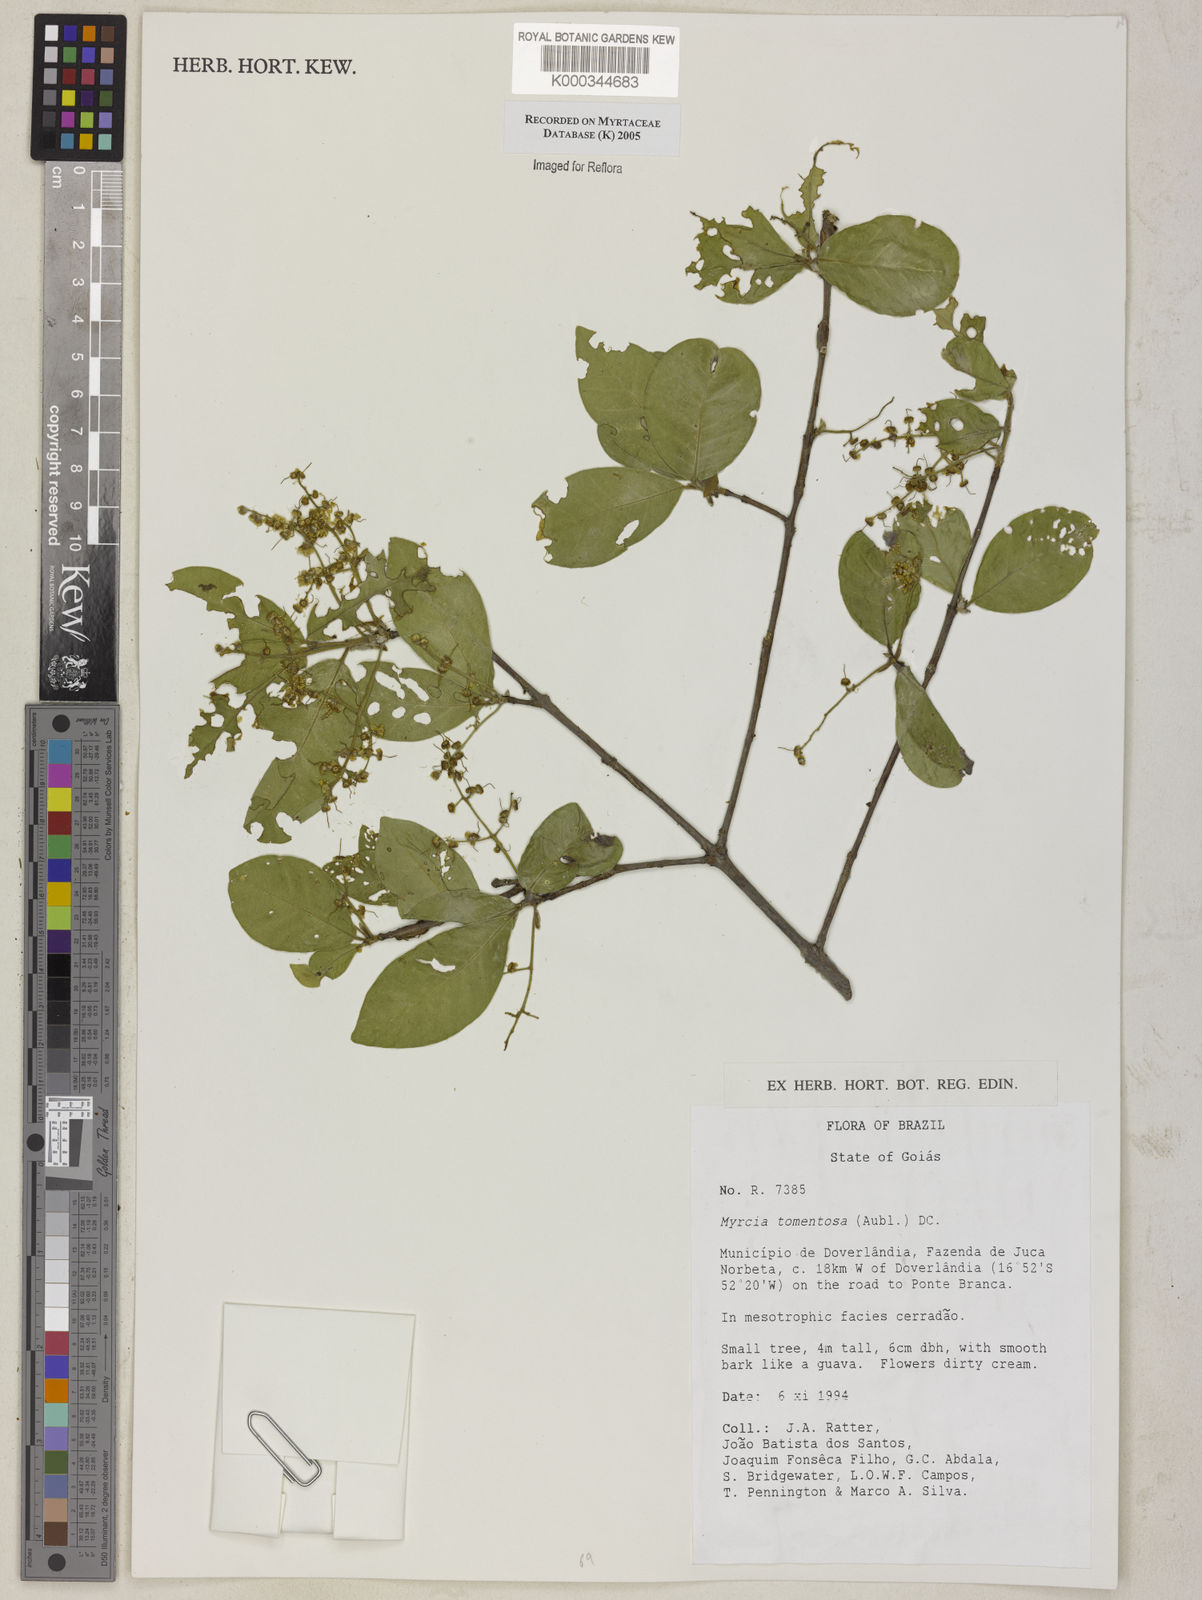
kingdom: Plantae
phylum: Tracheophyta
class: Magnoliopsida
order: Myrtales
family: Myrtaceae
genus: Myrcia
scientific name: Myrcia tomentosa
